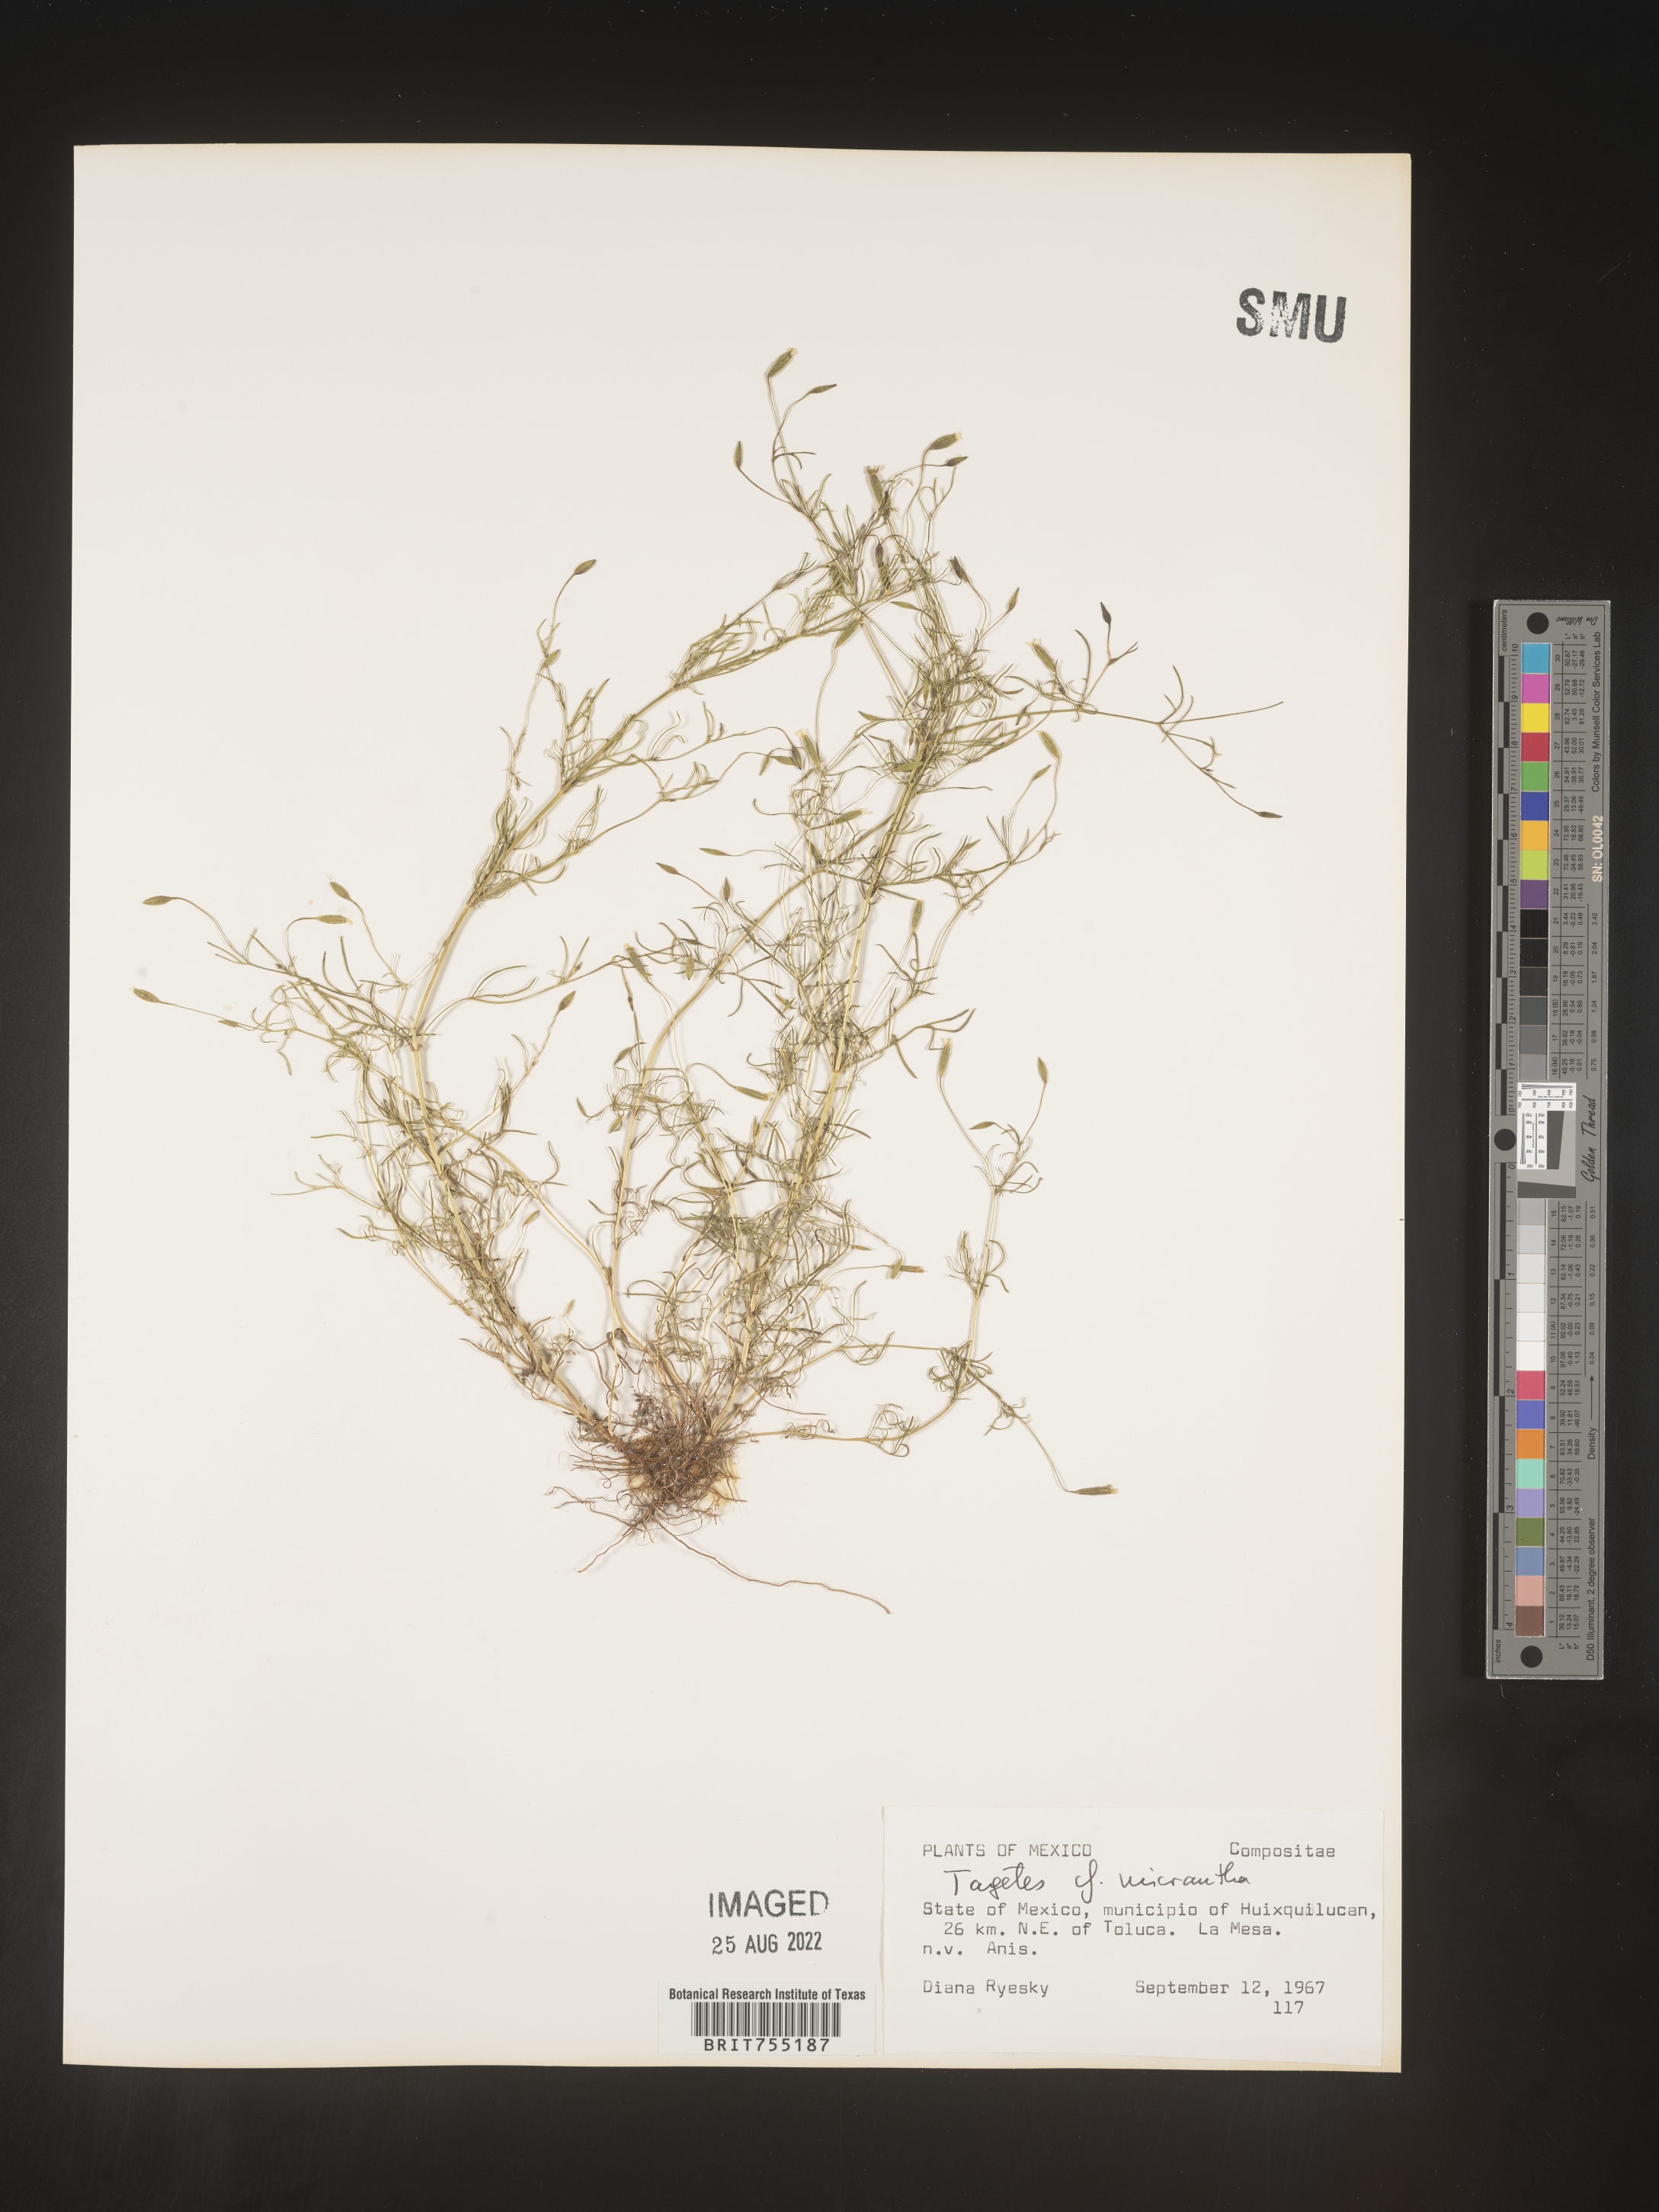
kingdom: Plantae
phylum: Tracheophyta
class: Magnoliopsida
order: Asterales
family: Asteraceae
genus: Tagetes
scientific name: Tagetes
